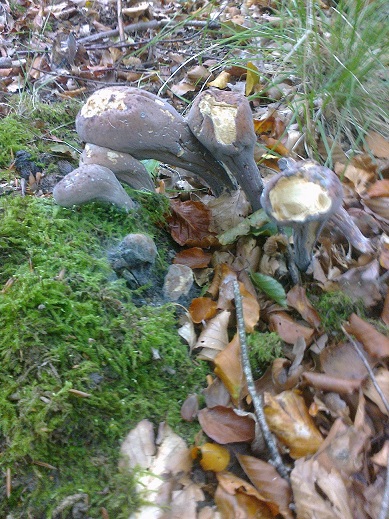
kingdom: Fungi
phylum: Basidiomycota
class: Agaricomycetes
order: Gomphales
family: Clavariadelphaceae
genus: Clavariadelphus
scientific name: Clavariadelphus pistillaris
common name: herkules-kæmpekølle
